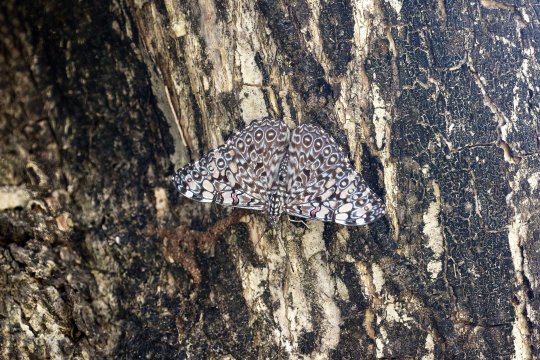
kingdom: Animalia
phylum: Arthropoda
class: Insecta
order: Lepidoptera
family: Nymphalidae
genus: Hamadryas
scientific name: Hamadryas feronia
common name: Variable Cracker
